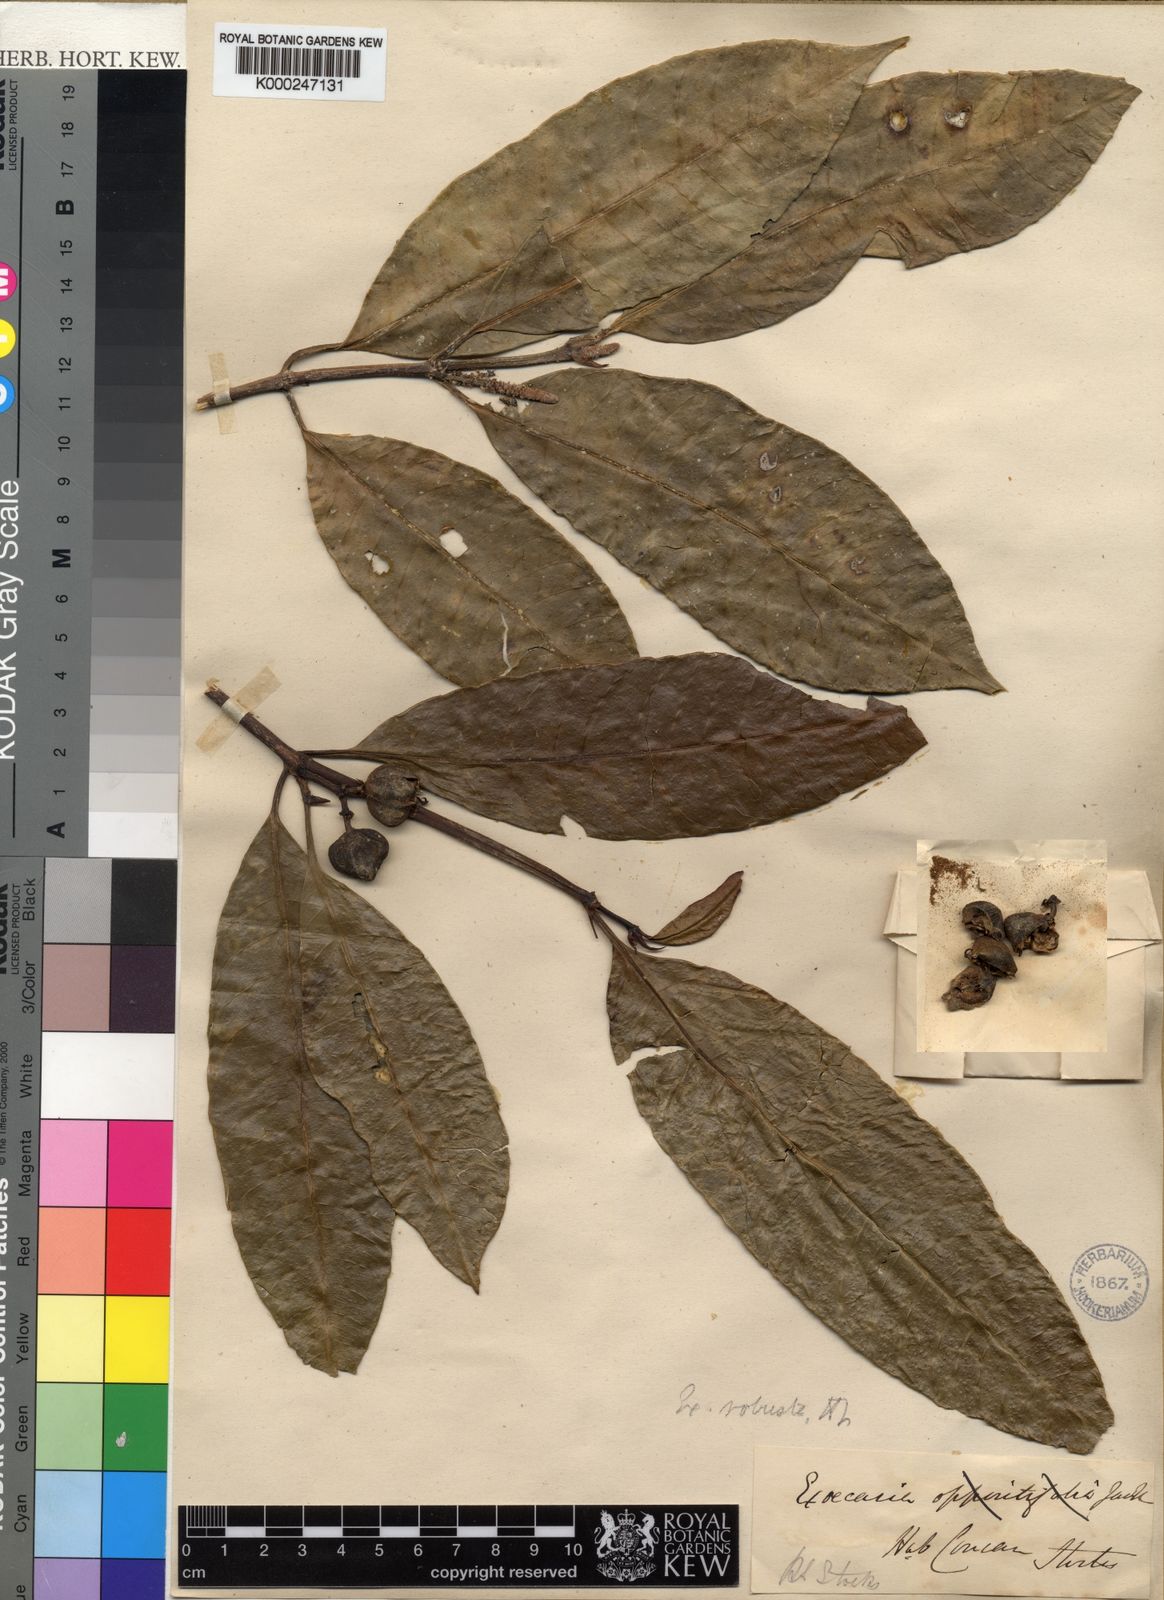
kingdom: Plantae
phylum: Tracheophyta
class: Magnoliopsida
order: Malpighiales
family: Euphorbiaceae
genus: Excoecaria
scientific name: Excoecaria oppositifolia
